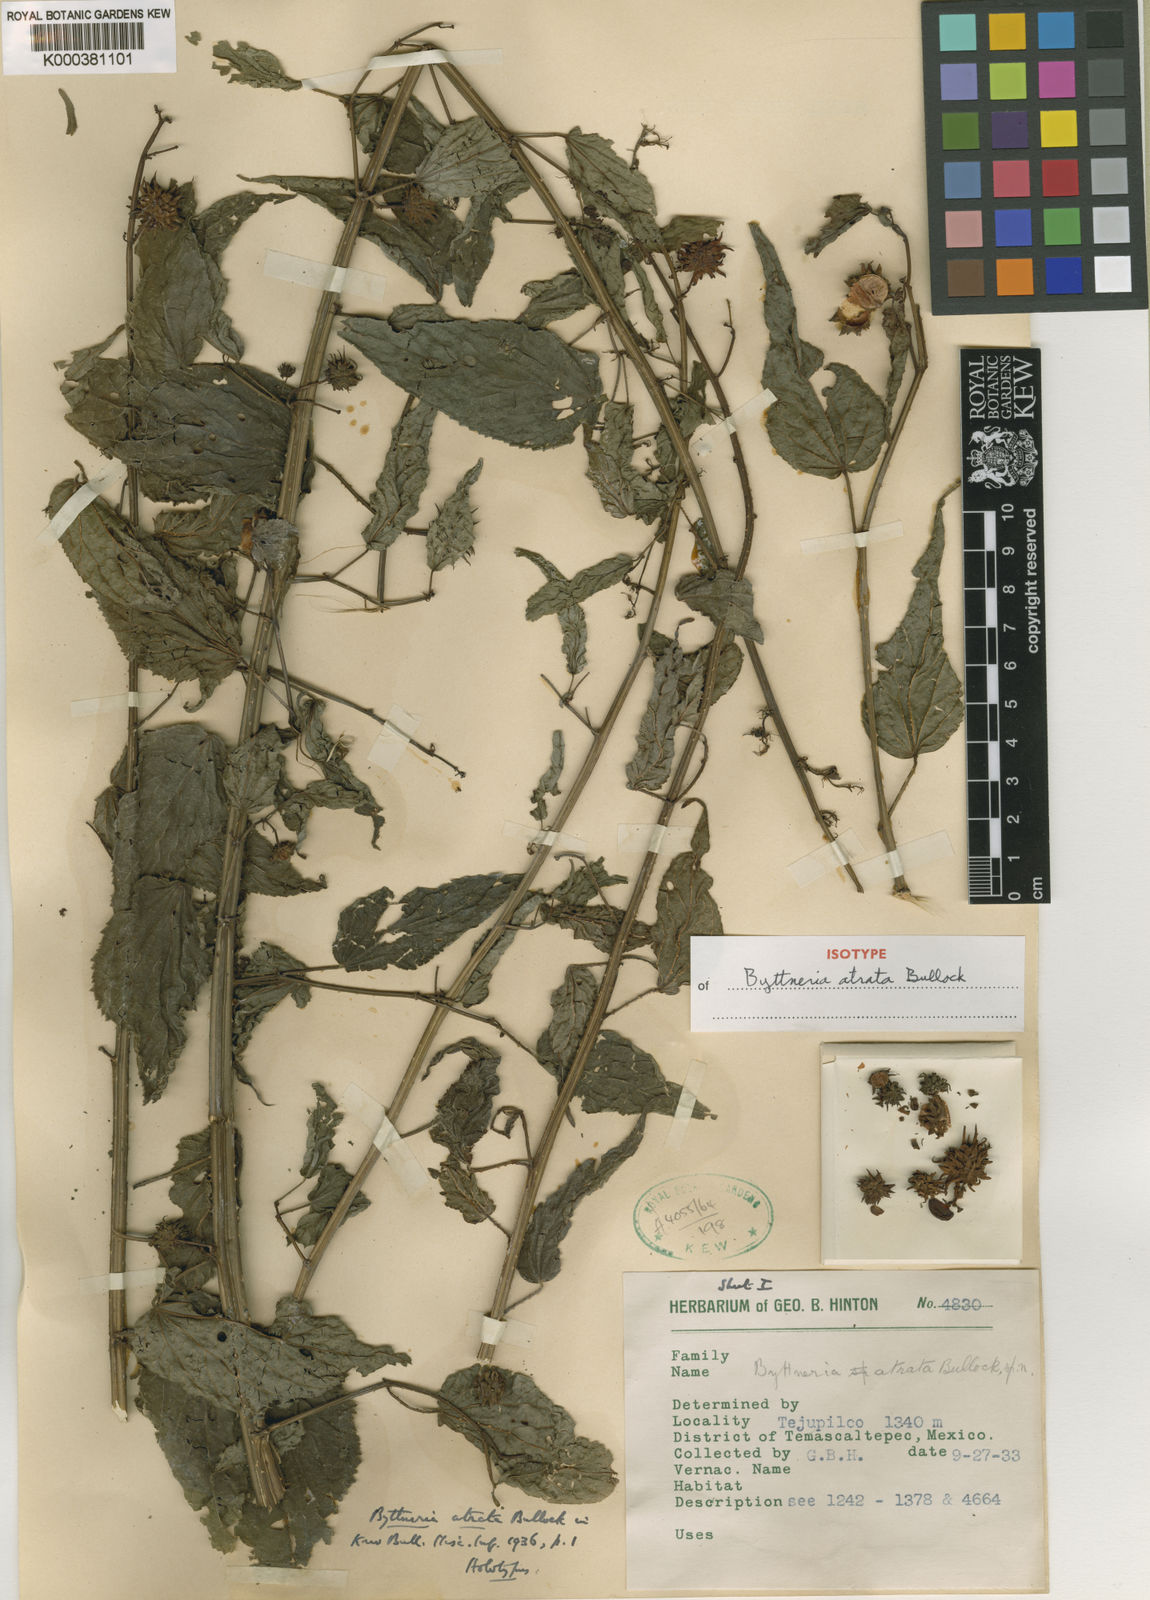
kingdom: Plantae
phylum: Tracheophyta
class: Magnoliopsida
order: Malvales
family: Malvaceae
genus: Byttneria
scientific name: Byttneria atrata
